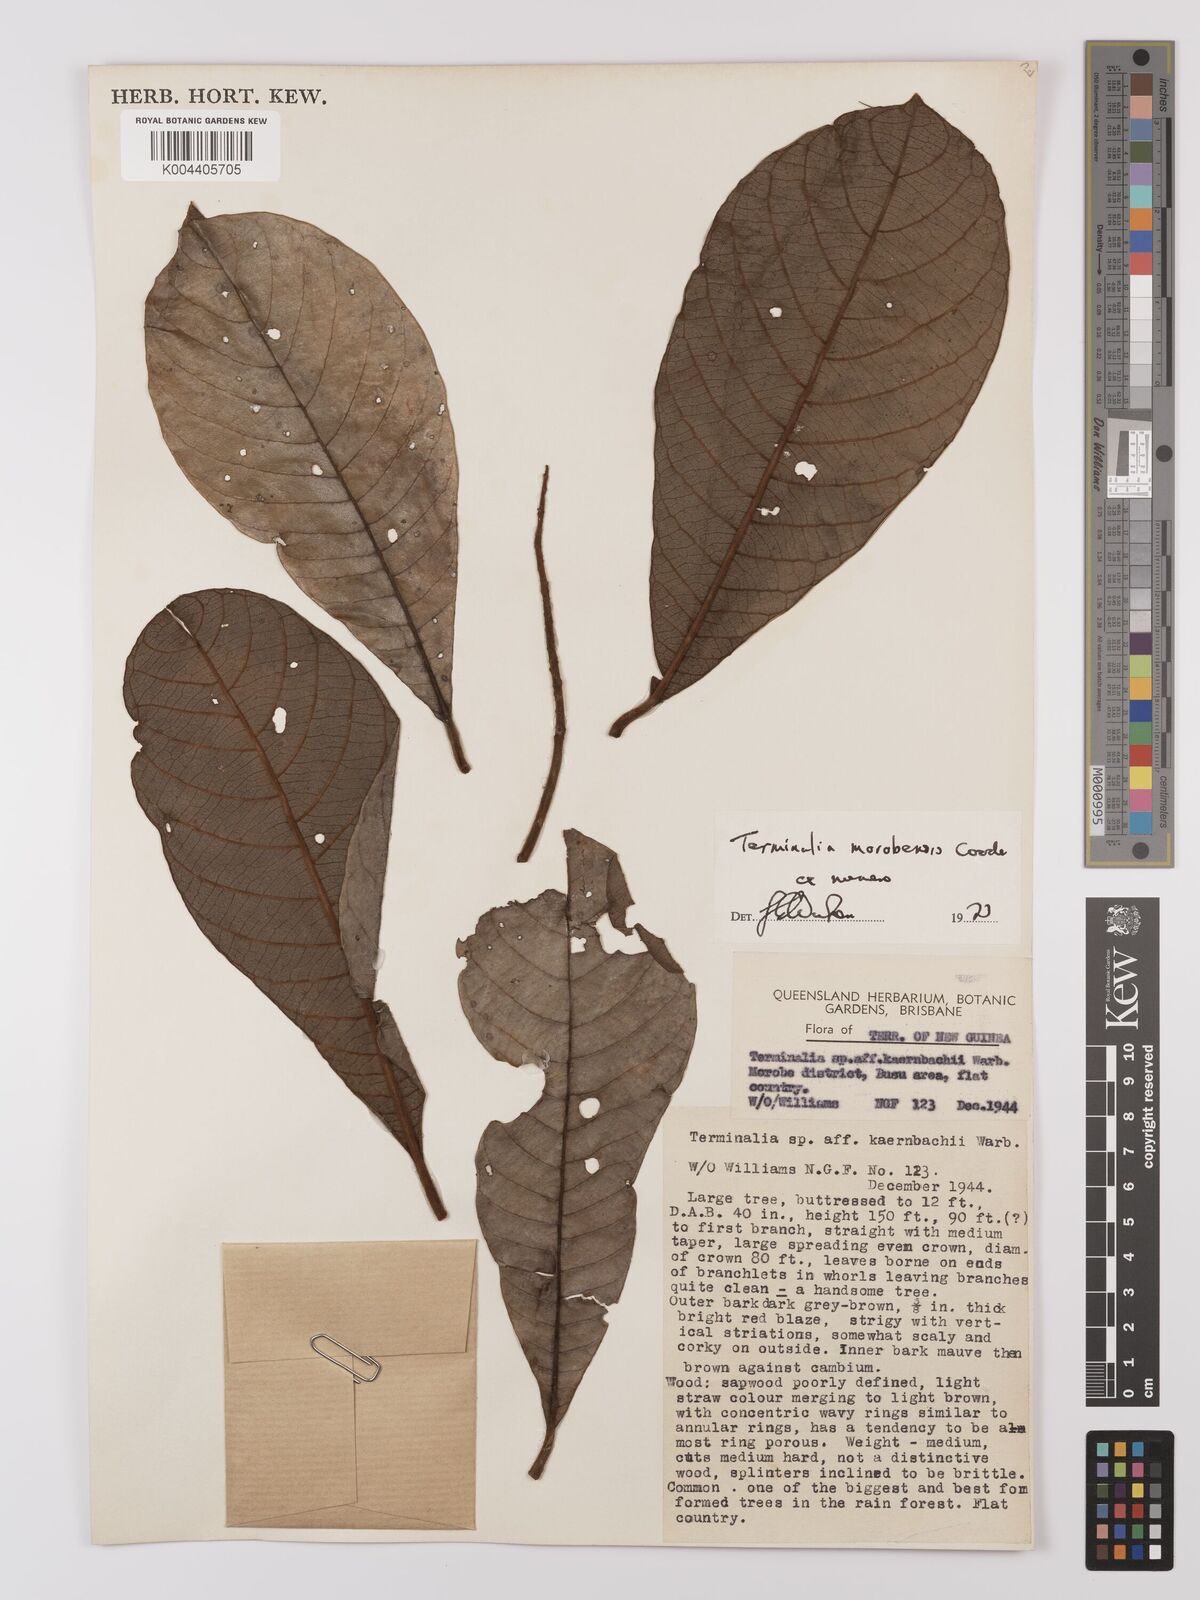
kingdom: Plantae
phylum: Tracheophyta
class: Magnoliopsida
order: Myrtales
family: Combretaceae
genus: Terminalia
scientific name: Terminalia morobensis
